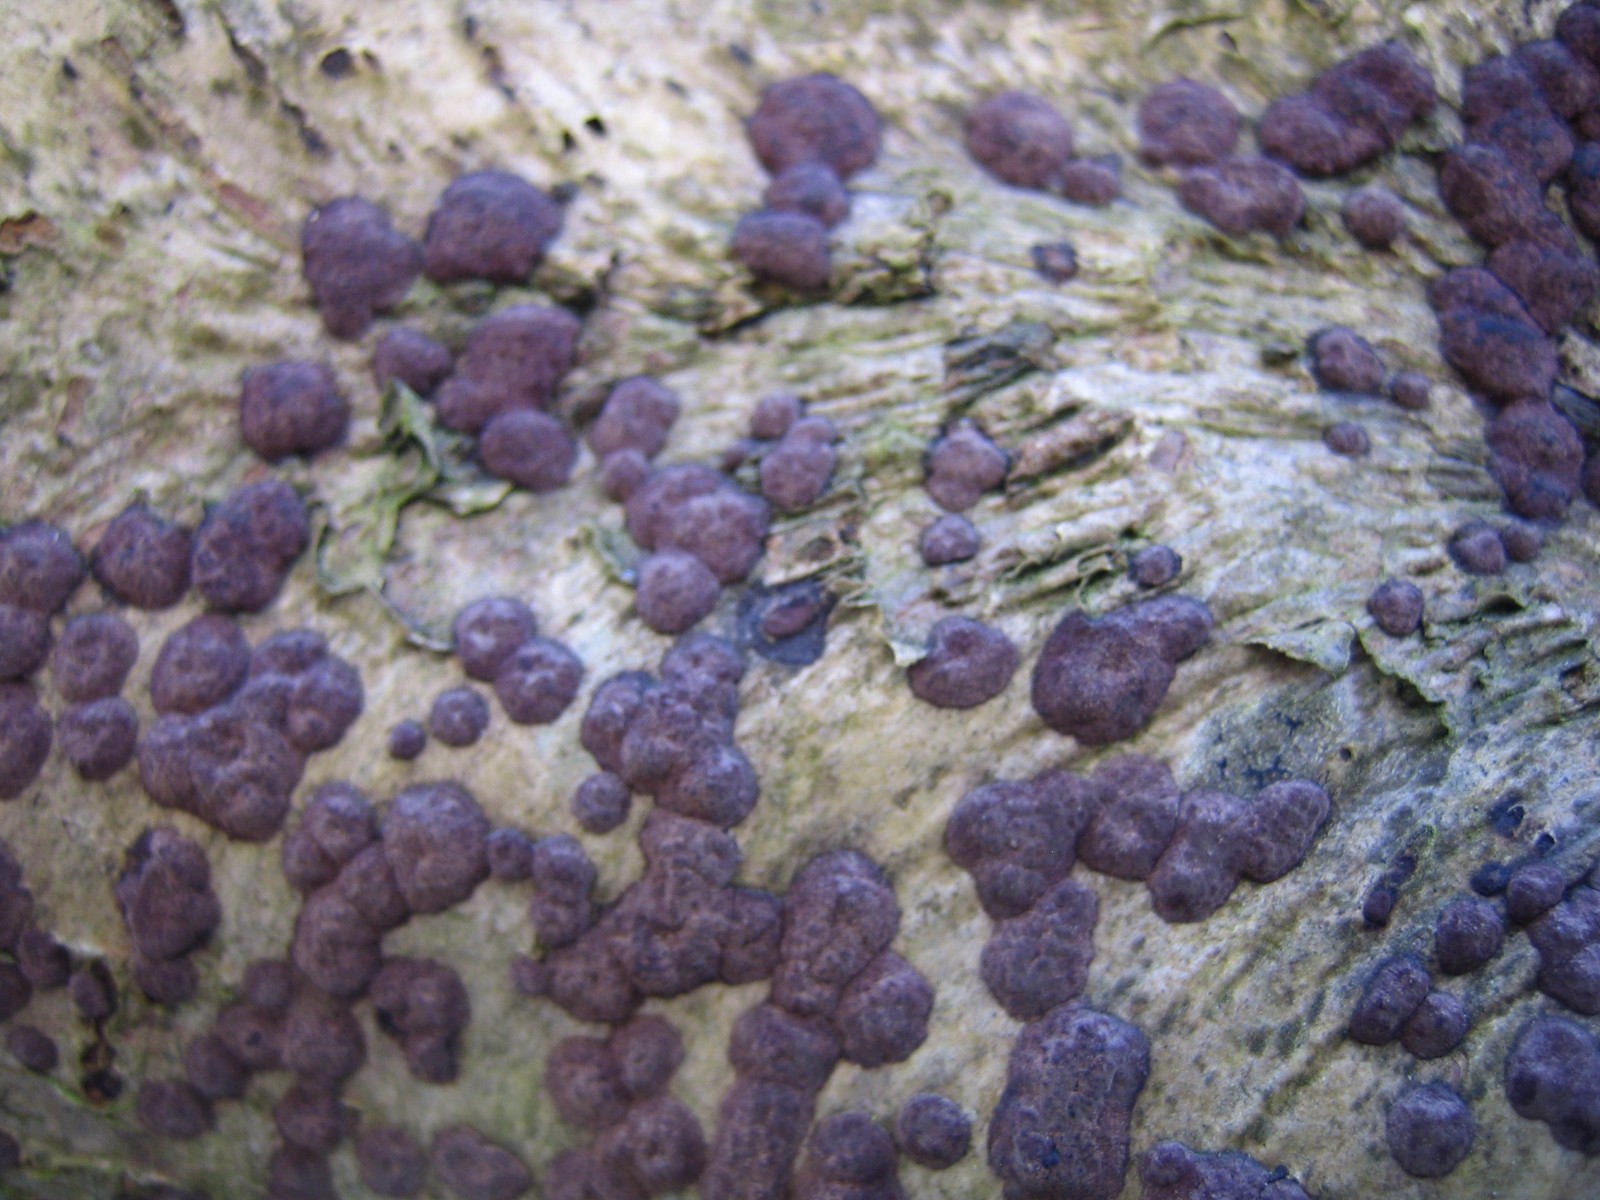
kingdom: Fungi
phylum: Ascomycota
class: Sordariomycetes
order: Xylariales
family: Hypoxylaceae
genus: Hypoxylon
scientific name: Hypoxylon fuscum
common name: kegleformet kulbær
